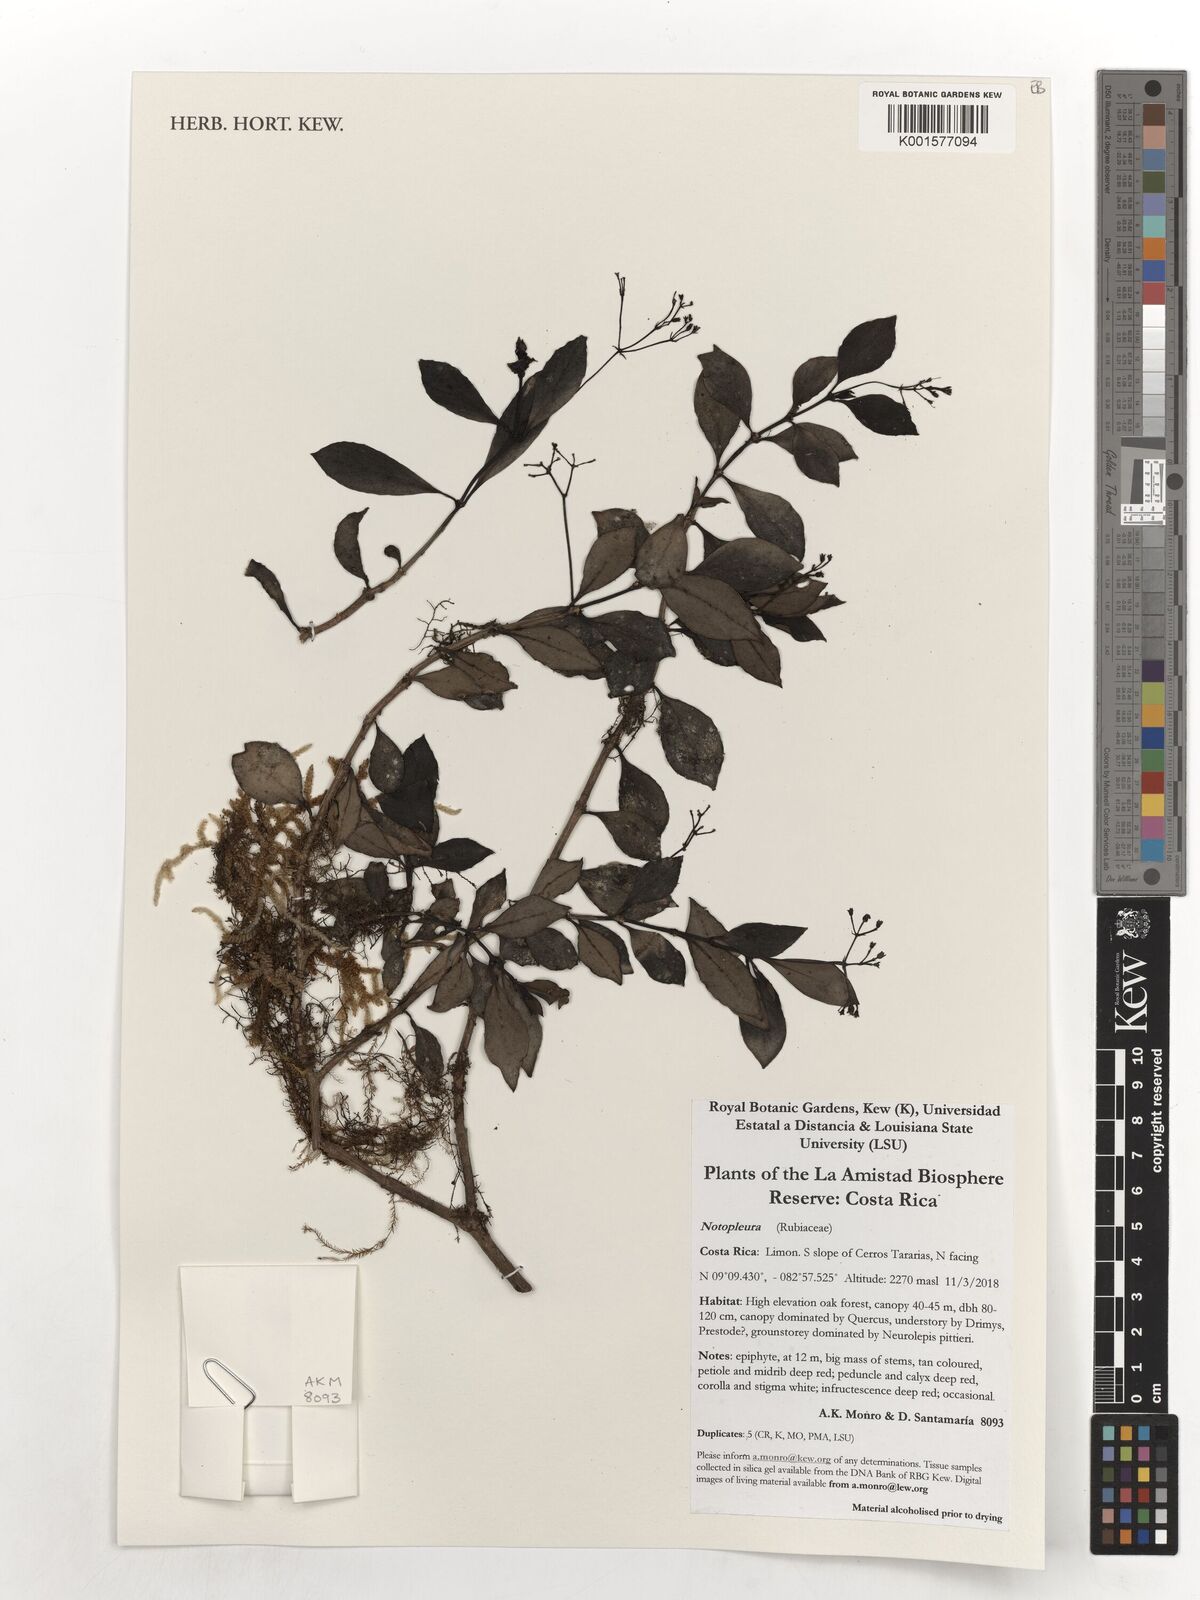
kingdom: Plantae
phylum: Tracheophyta
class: Magnoliopsida
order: Gentianales
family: Rubiaceae
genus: Notopleura
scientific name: Notopleura
